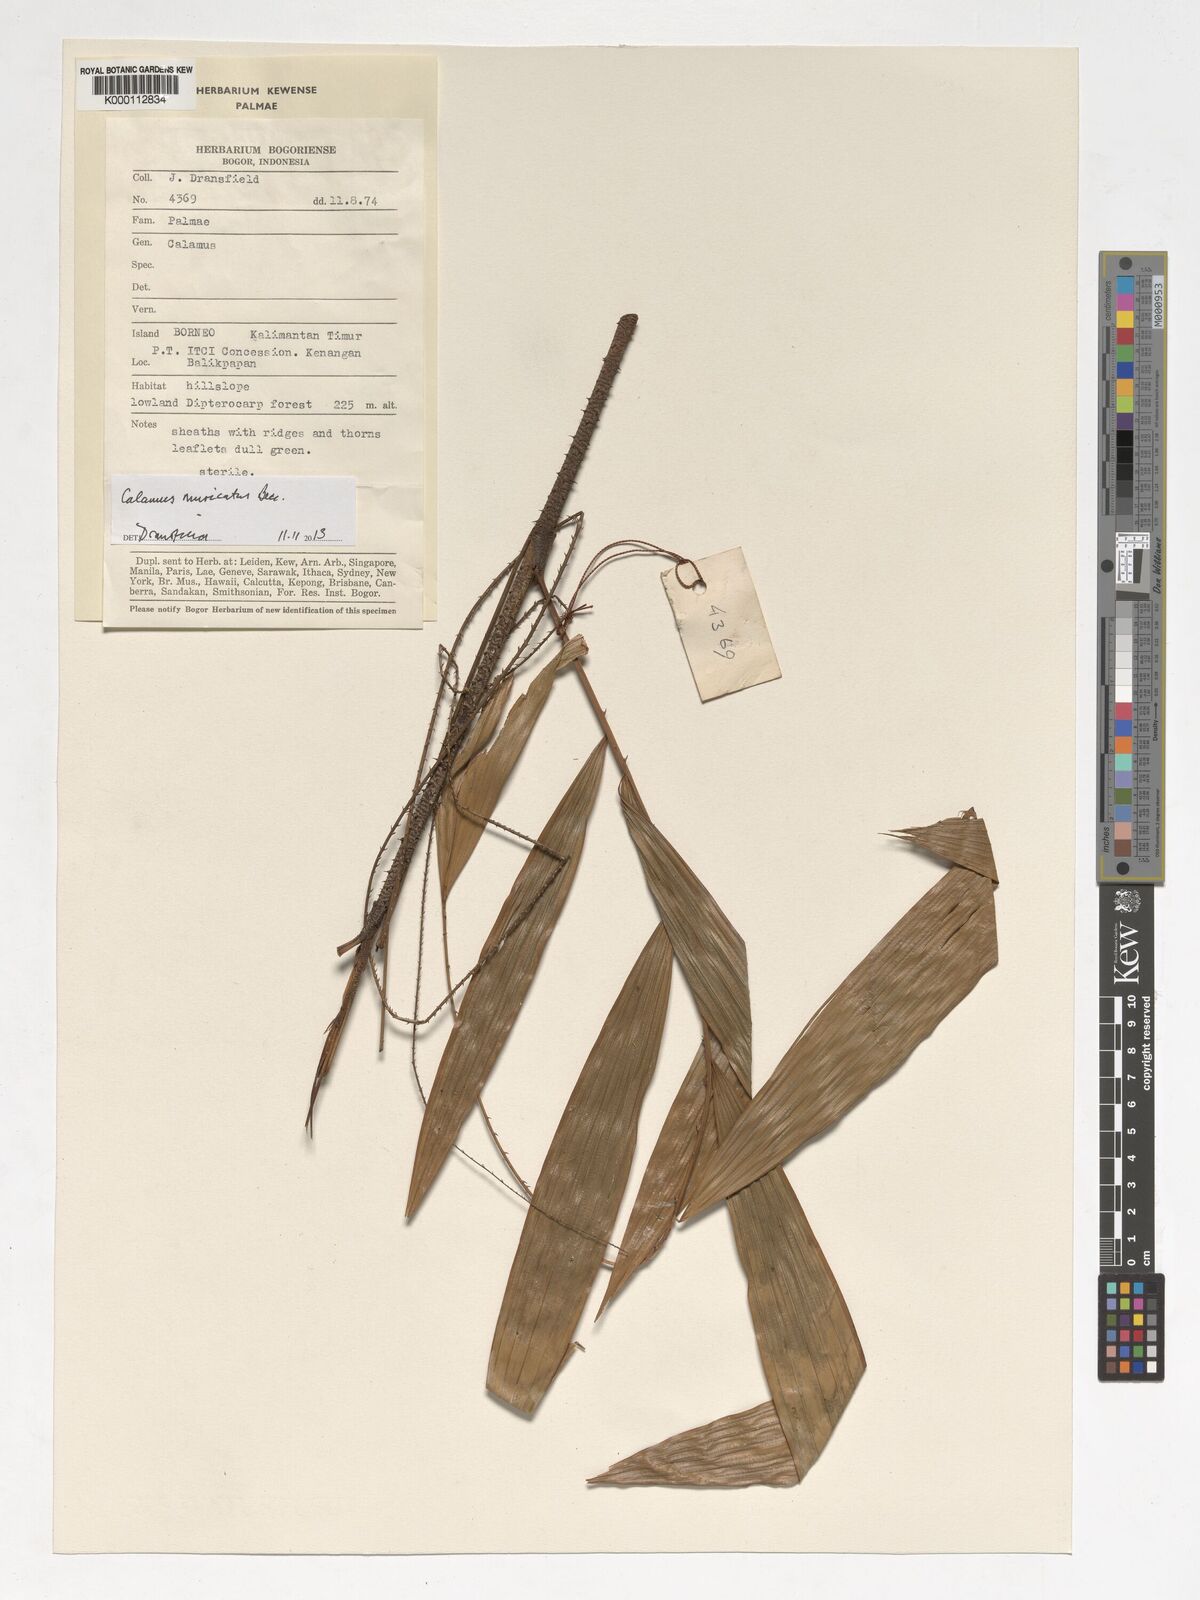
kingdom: Plantae
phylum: Tracheophyta
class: Liliopsida
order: Arecales
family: Arecaceae
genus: Calamus
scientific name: Calamus
